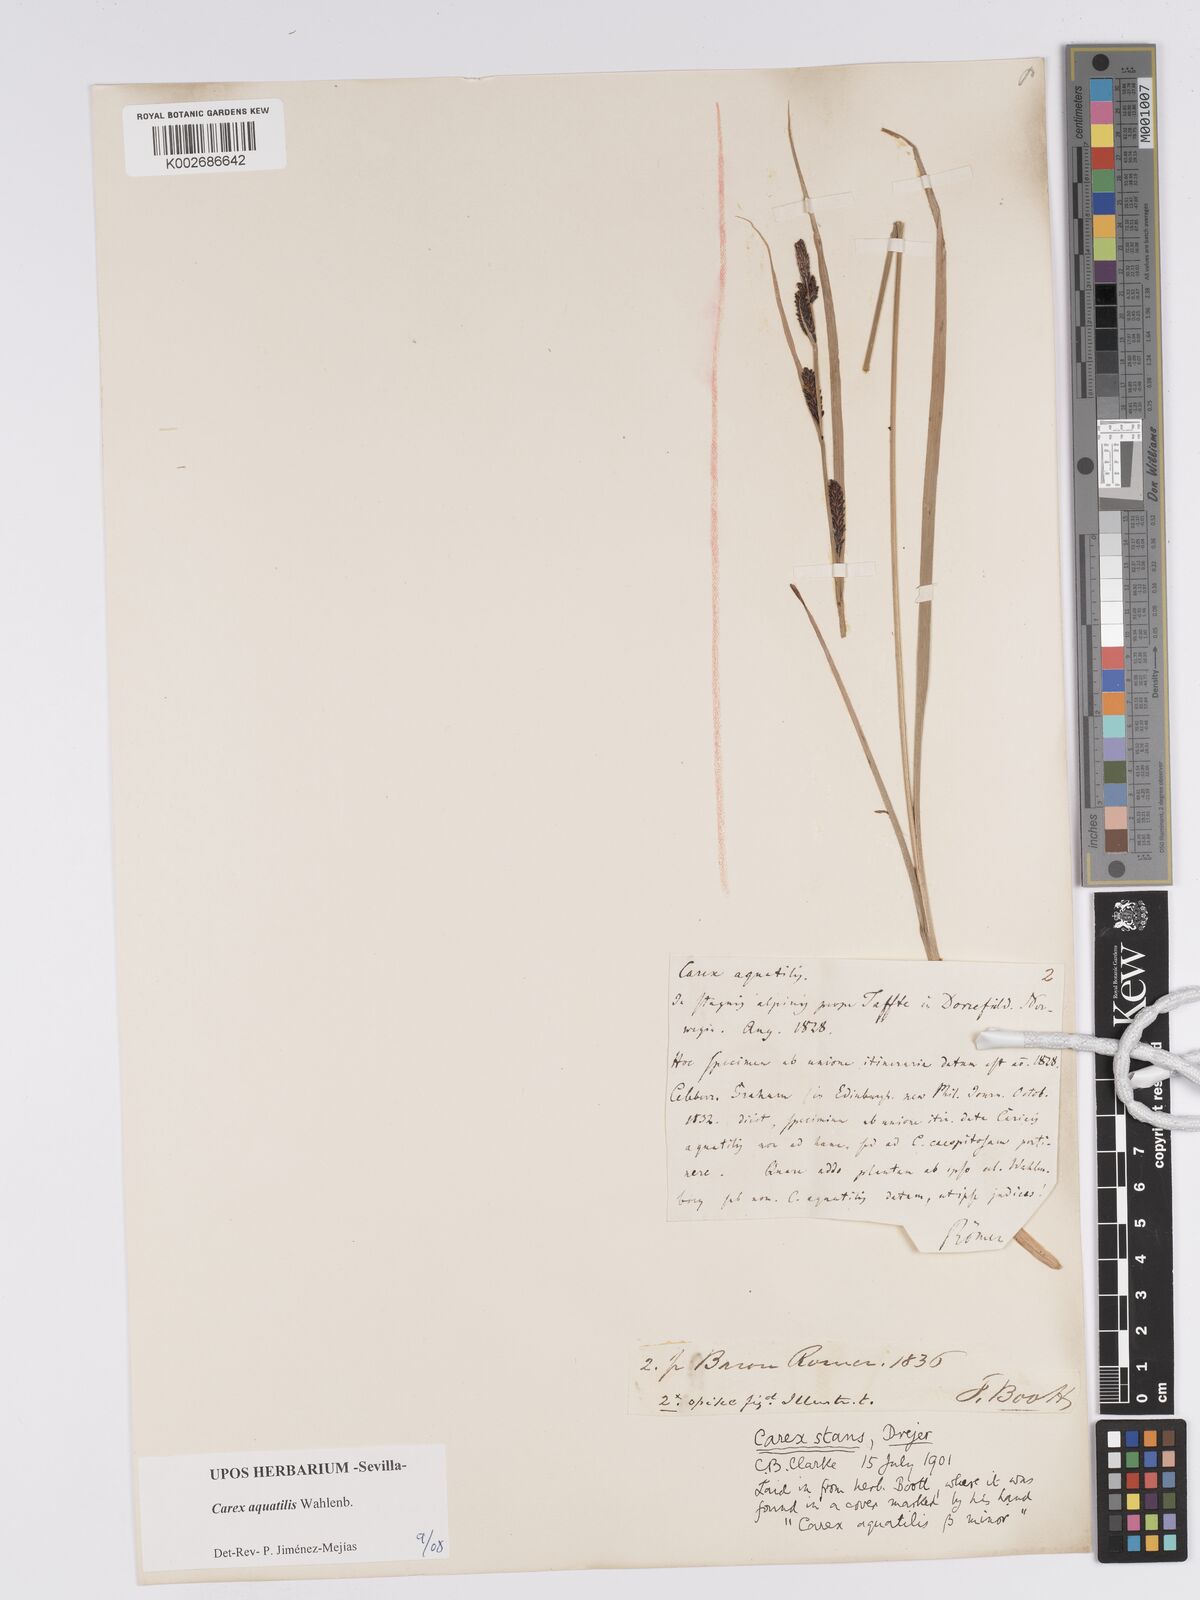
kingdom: Plantae
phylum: Tracheophyta
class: Liliopsida
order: Poales
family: Cyperaceae
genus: Carex
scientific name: Carex aquatilis
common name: Water sedge
